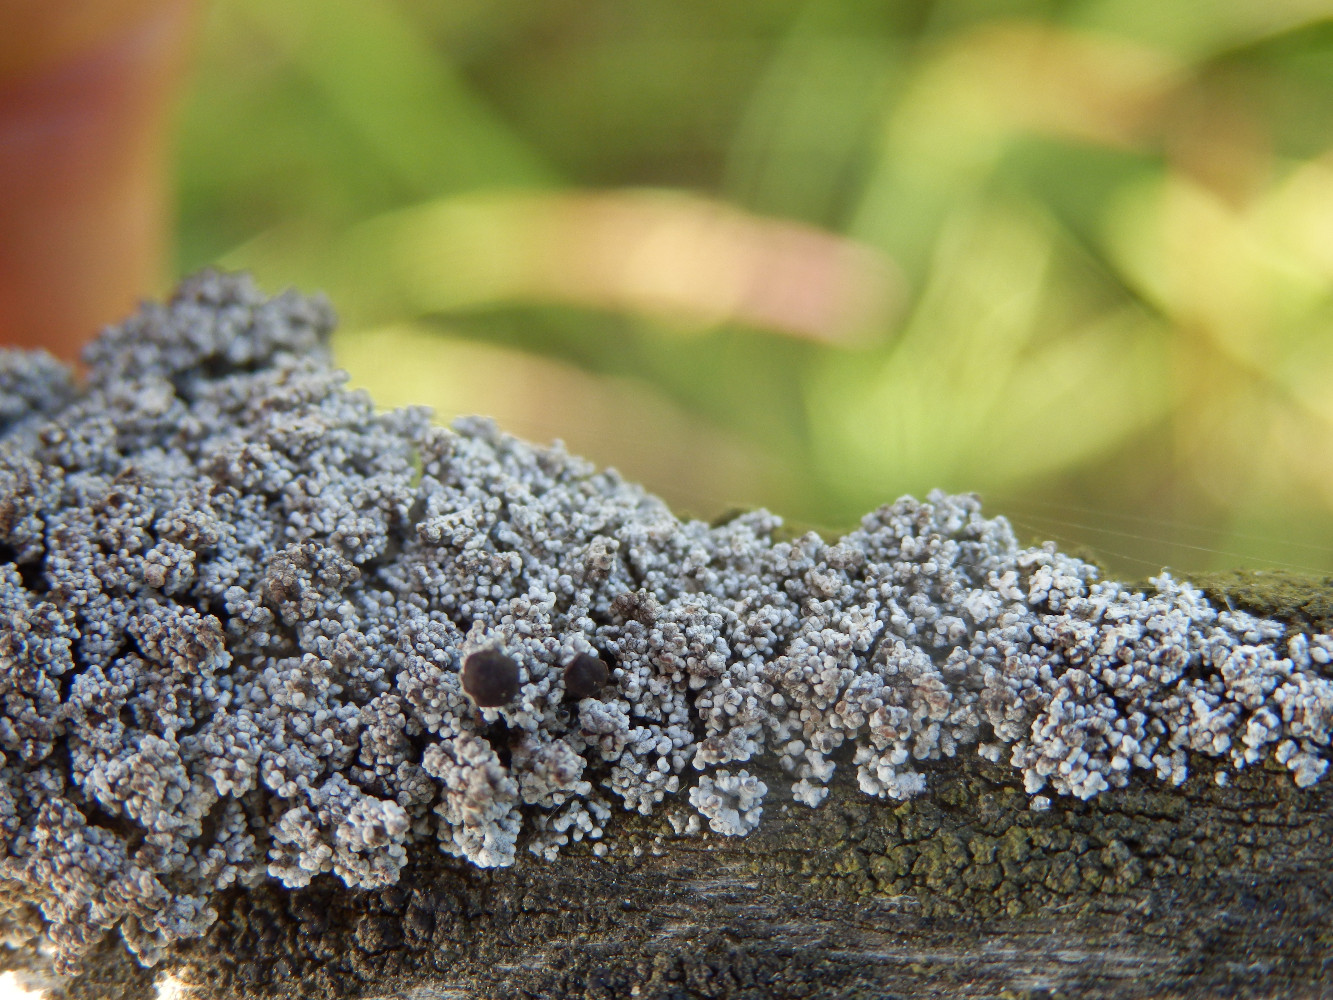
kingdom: Fungi
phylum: Ascomycota
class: Lecanoromycetes
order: Lecanorales
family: Stereocaulaceae
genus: Stereocaulon
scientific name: Stereocaulon evolutum
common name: pude-korallav
